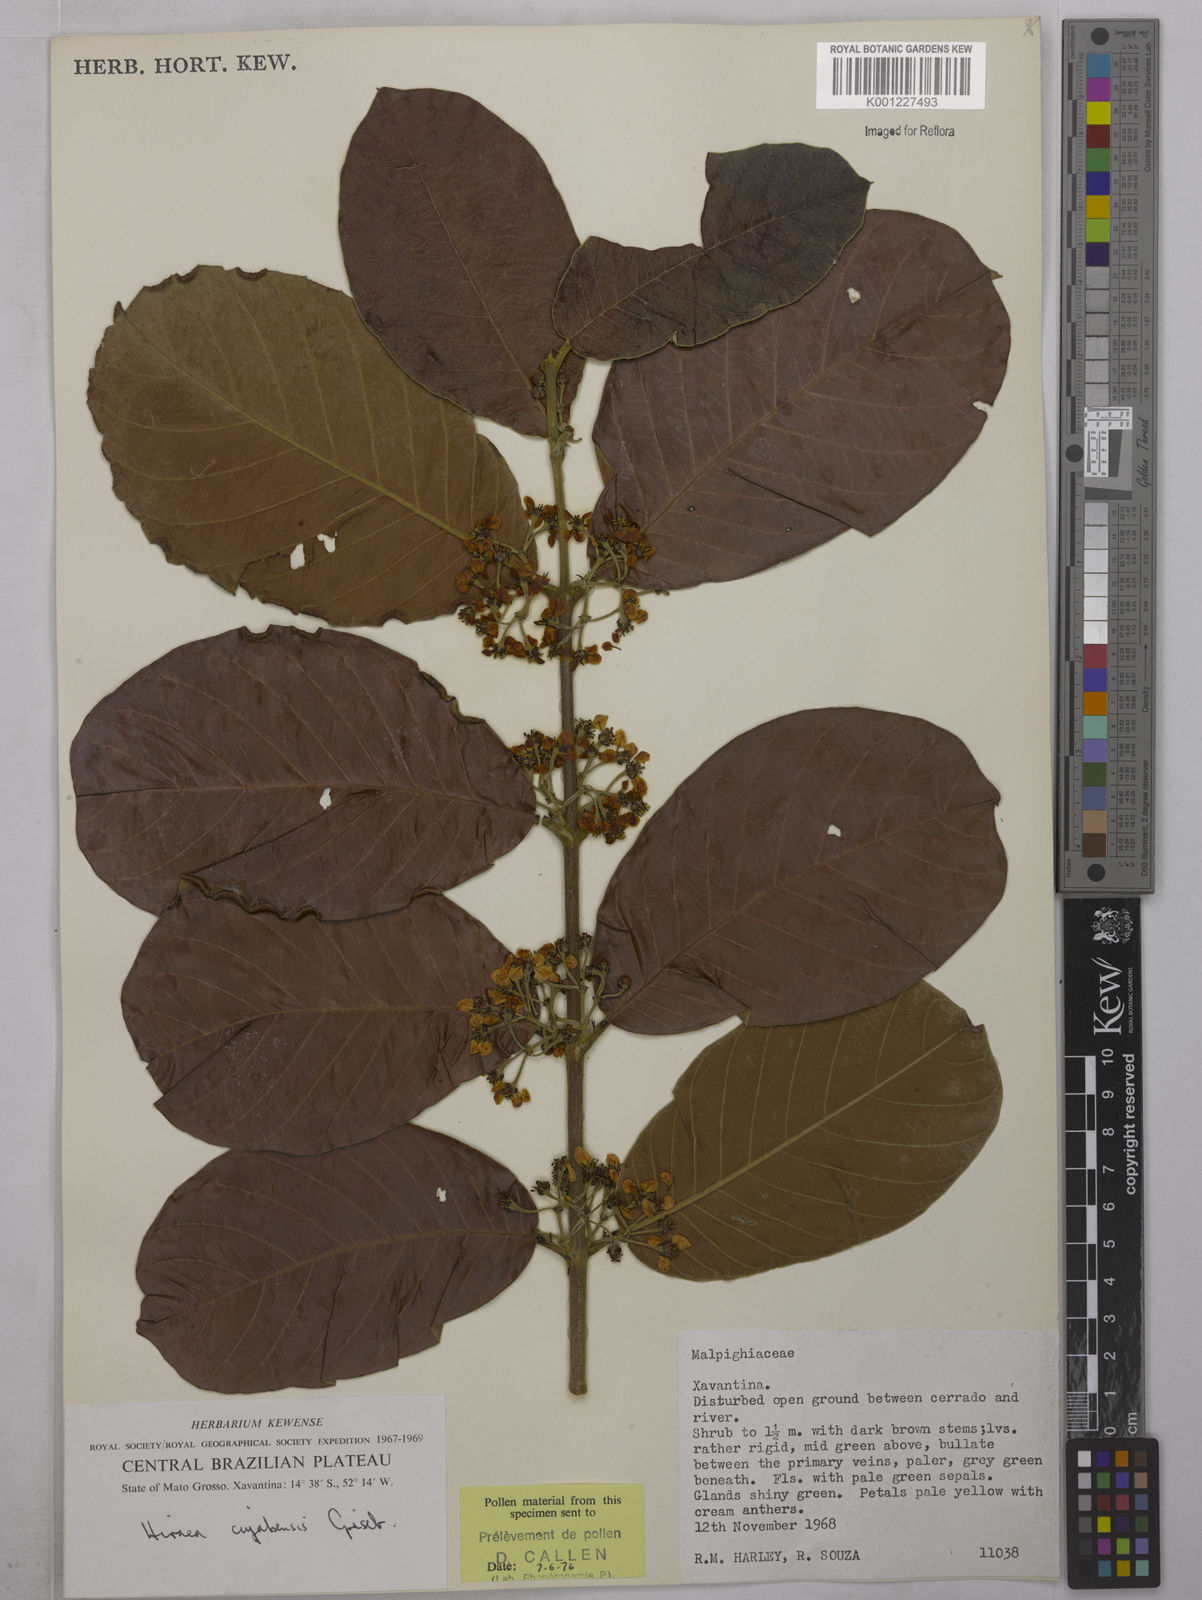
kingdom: Plantae
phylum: Tracheophyta
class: Magnoliopsida
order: Malpighiales
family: Malpighiaceae
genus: Hiraea
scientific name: Hiraea cuiabensis
